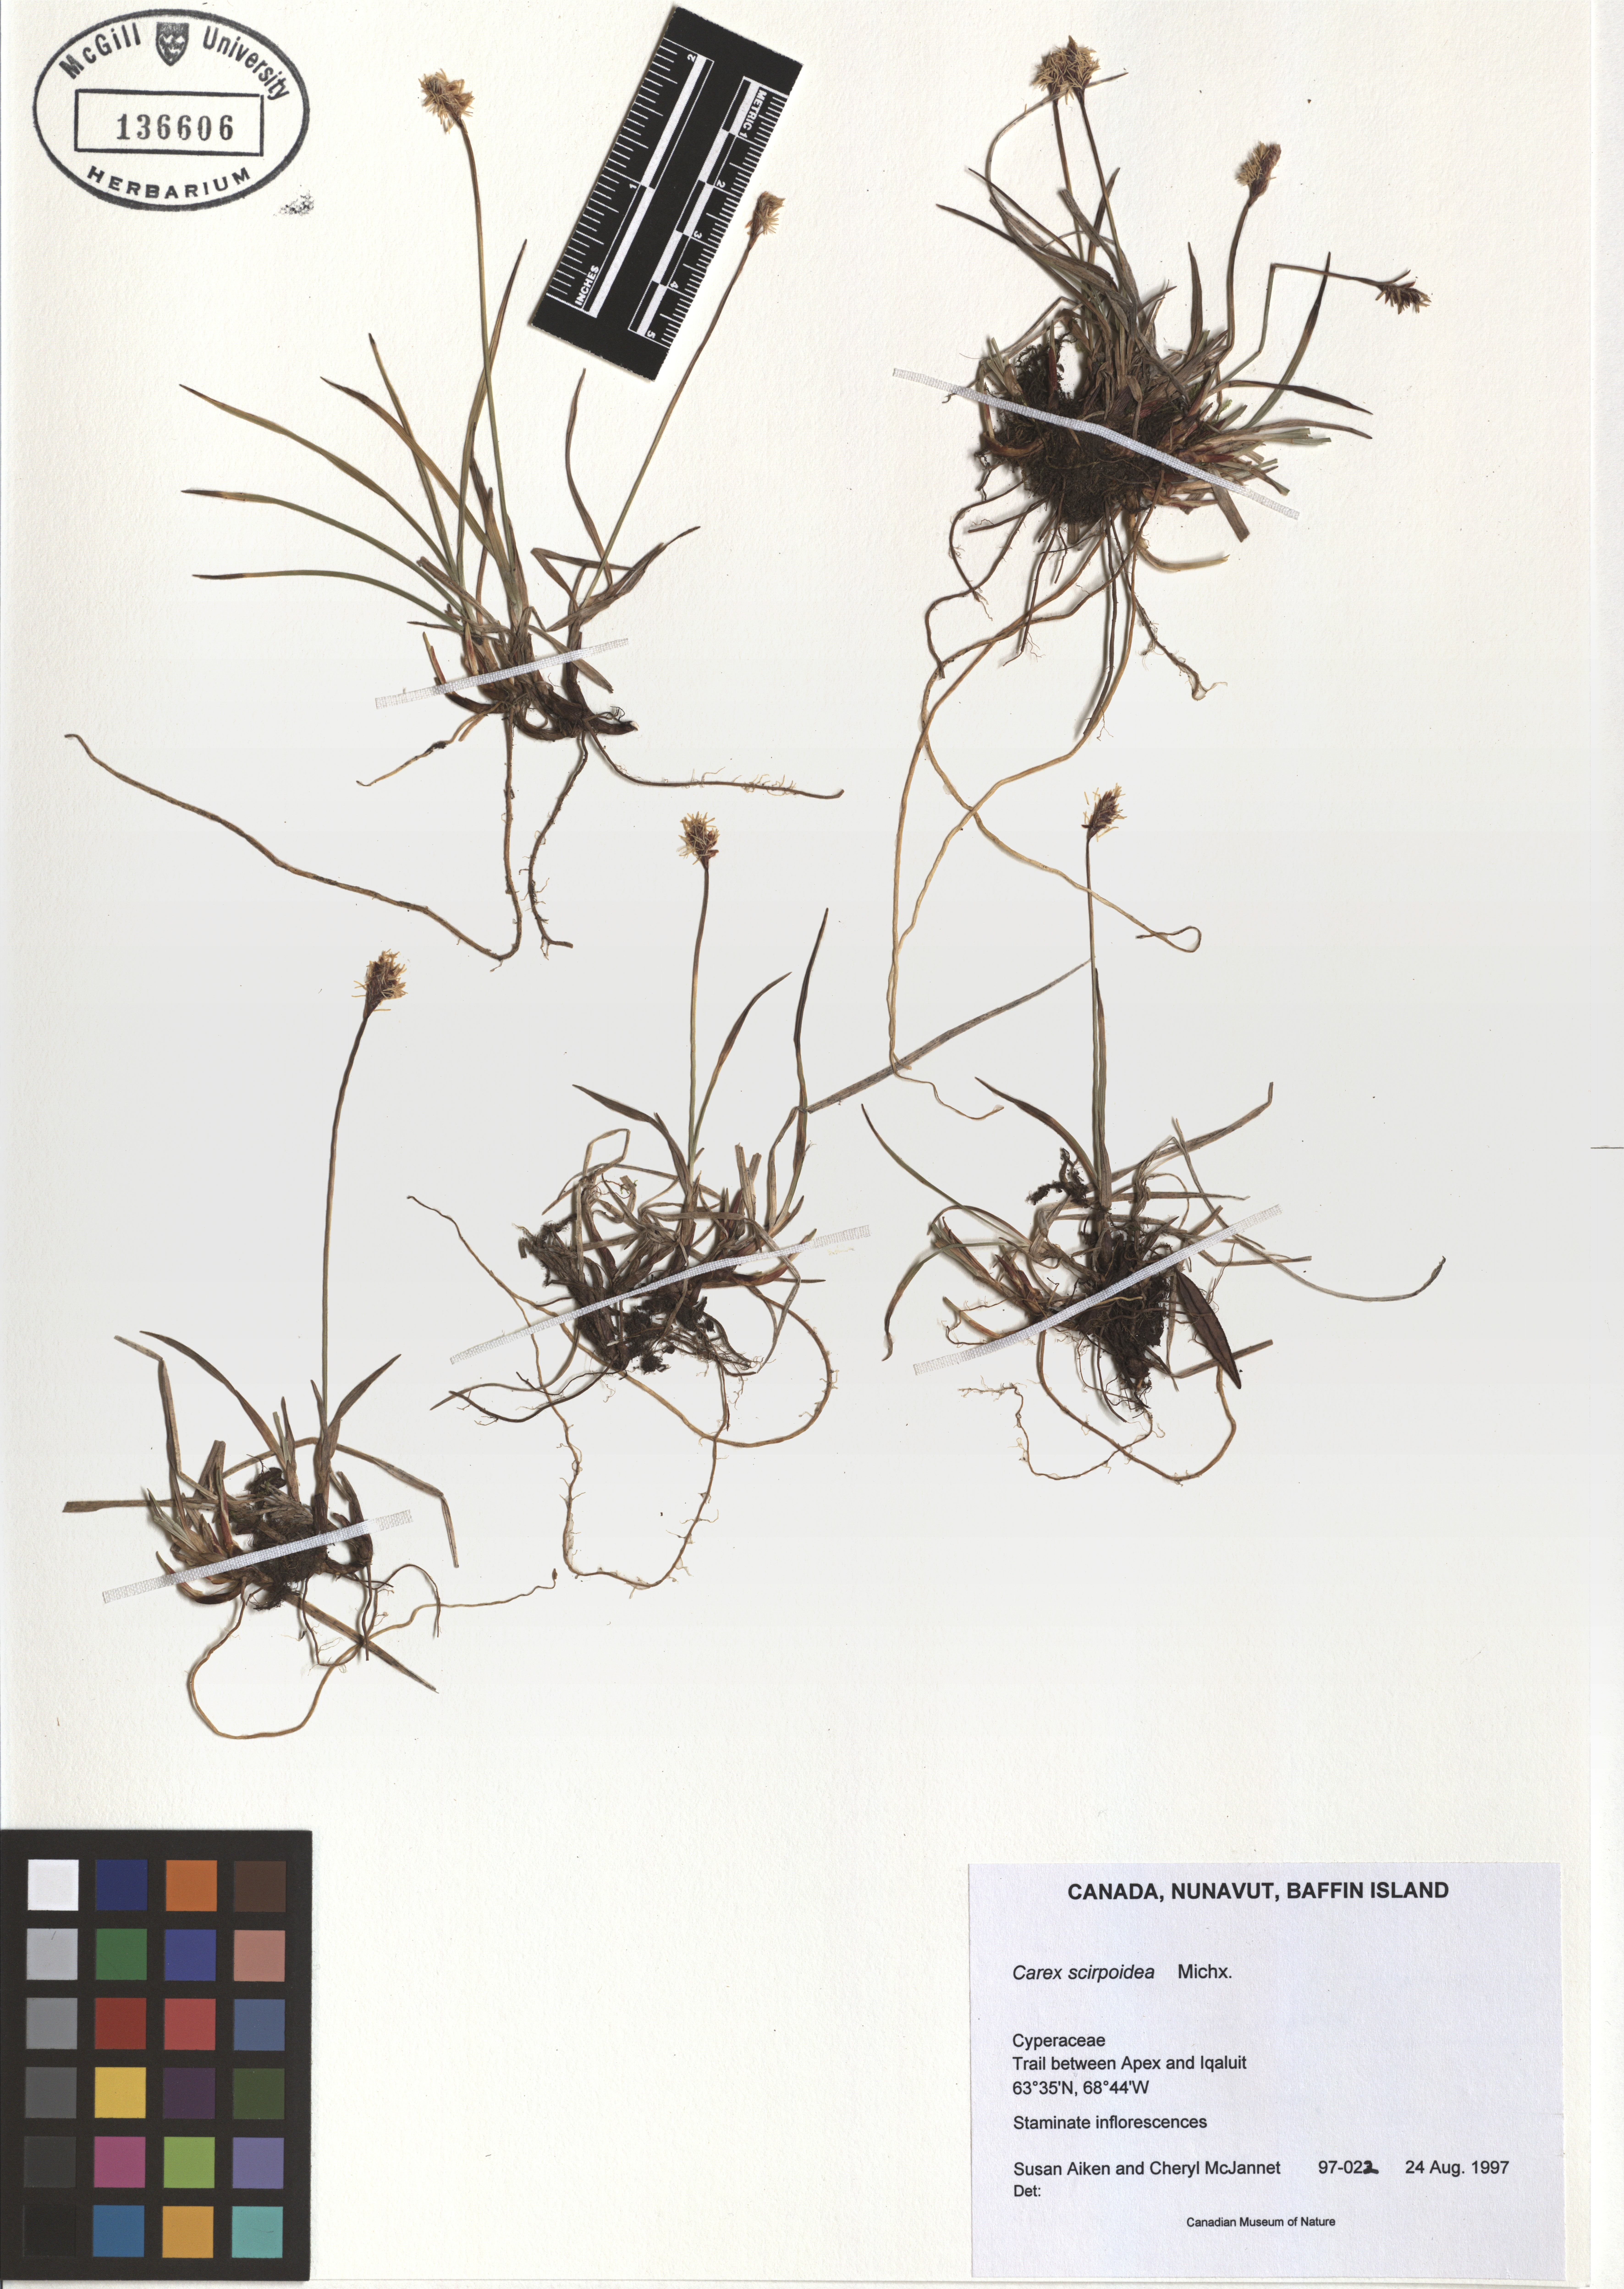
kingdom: Plantae
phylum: Tracheophyta
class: Liliopsida
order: Poales
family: Cyperaceae
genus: Carex
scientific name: Carex scirpoidea
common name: Canada single-spike sedge
